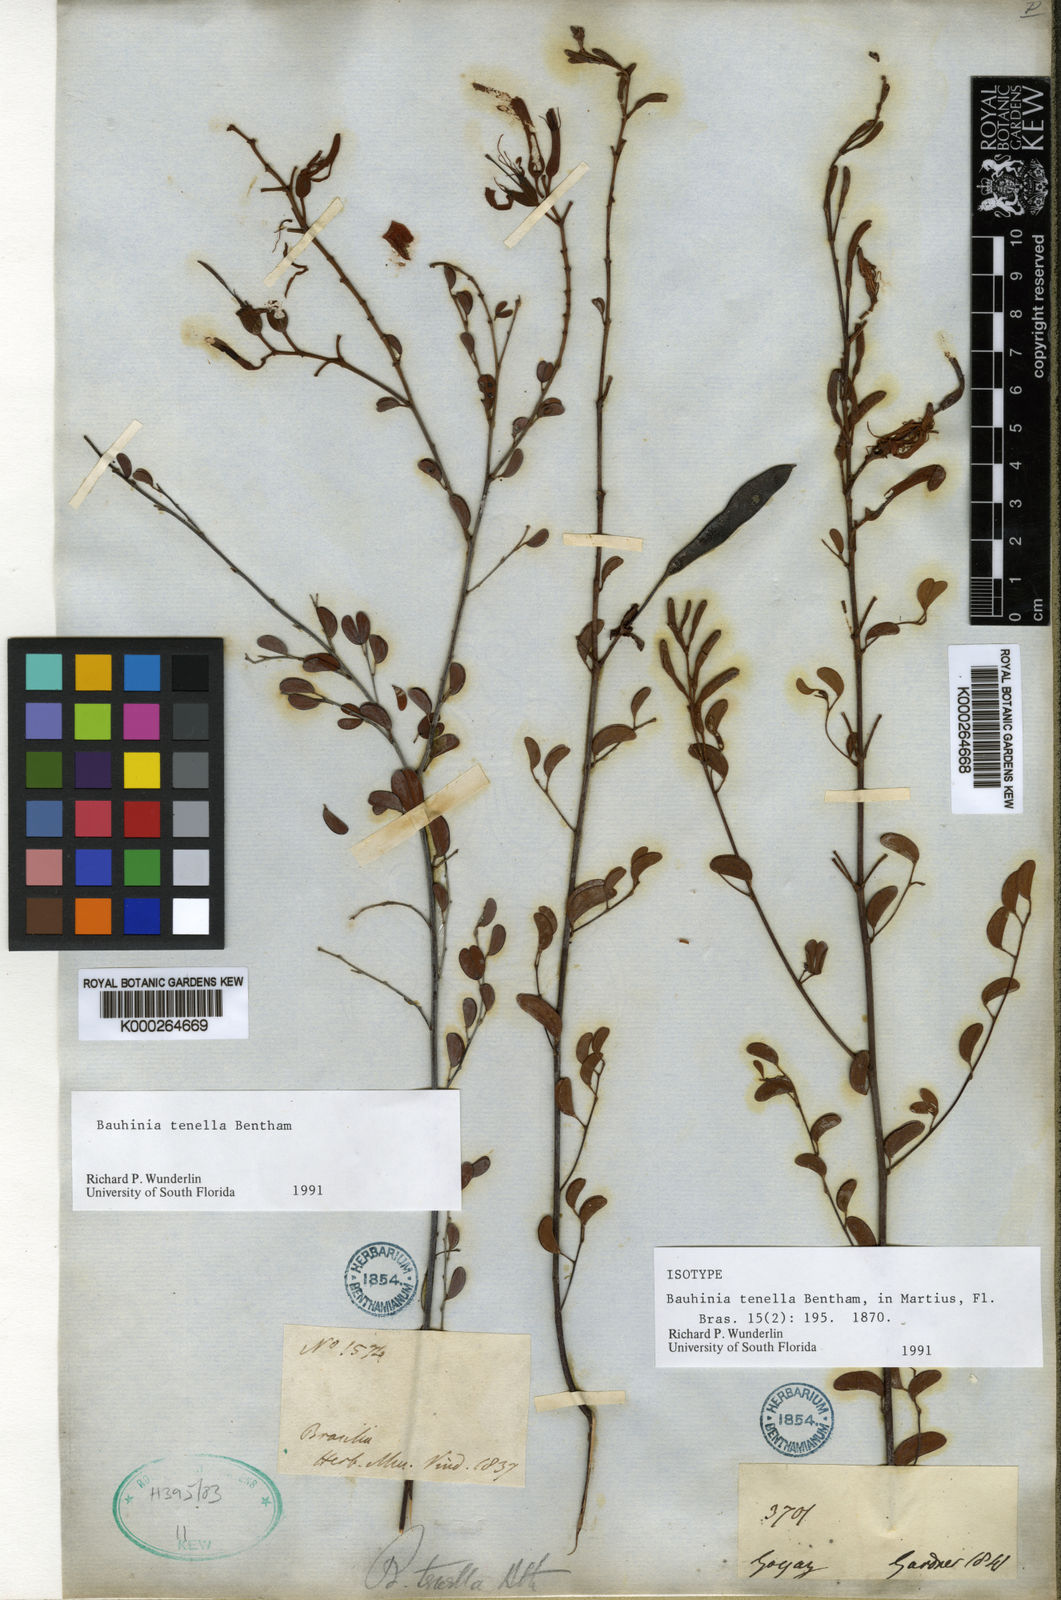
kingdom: Plantae
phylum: Tracheophyta
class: Magnoliopsida
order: Fabales
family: Fabaceae
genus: Bauhinia
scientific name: Bauhinia tenella
